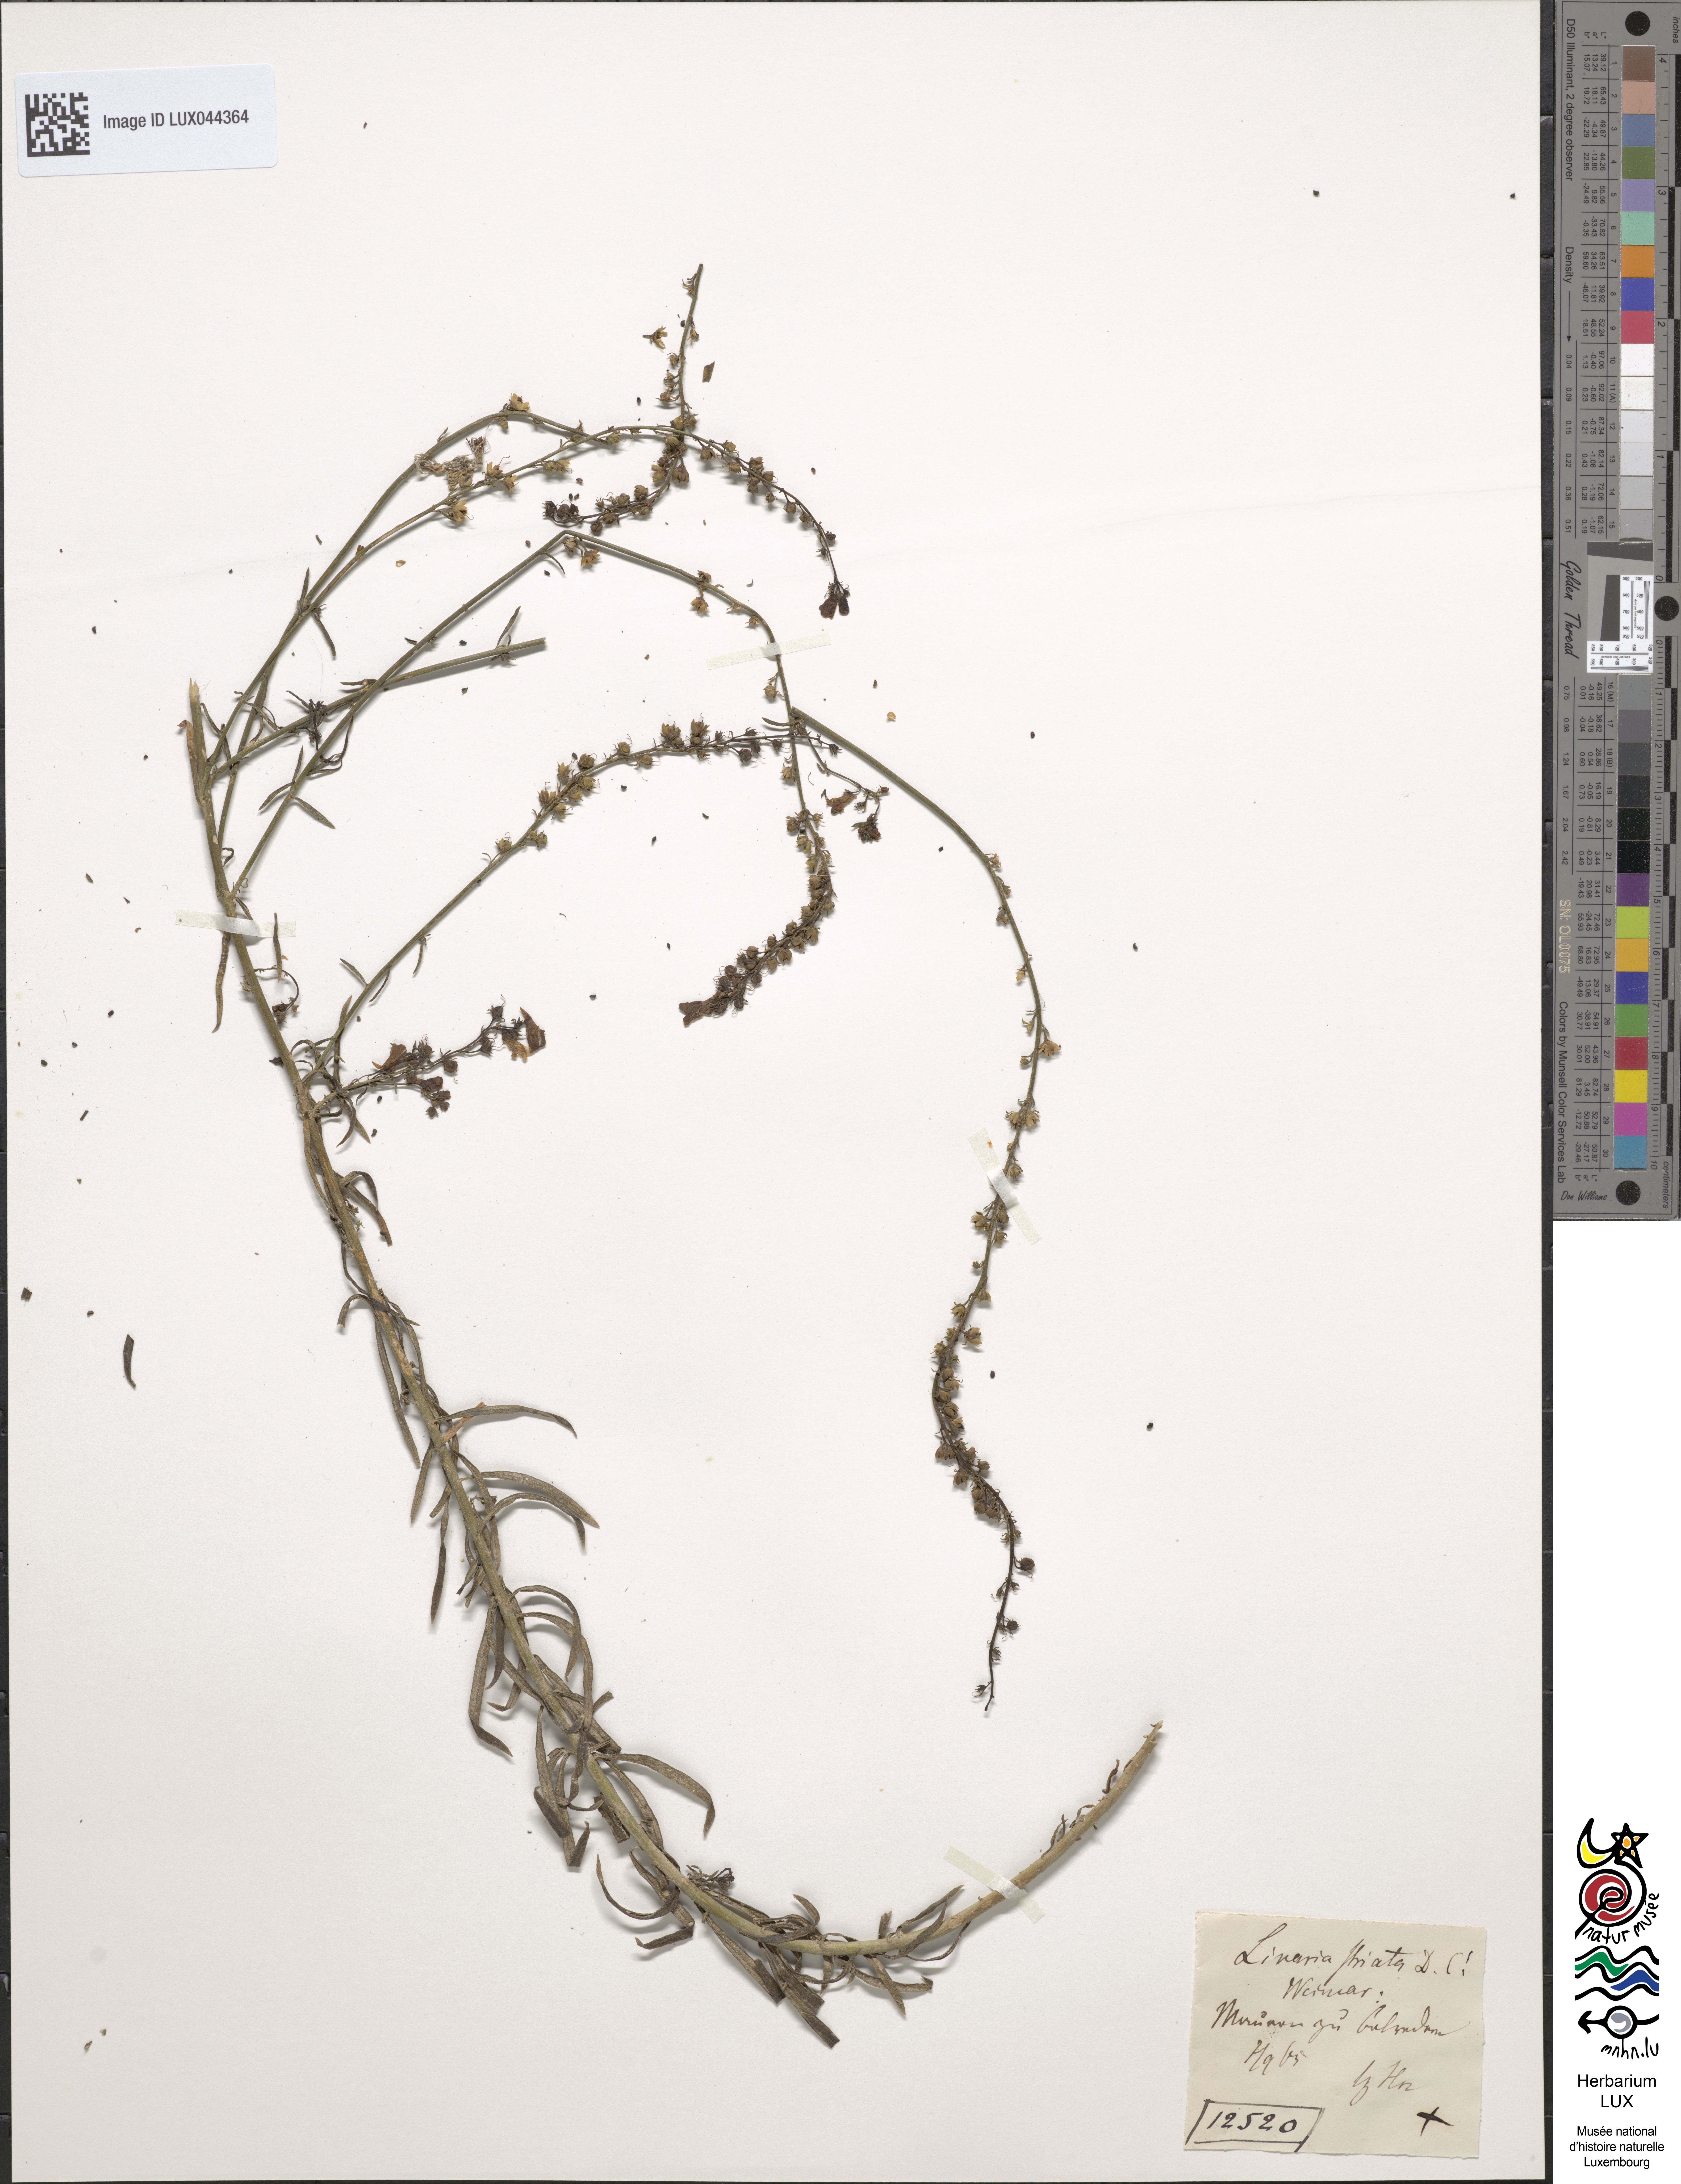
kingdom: Plantae
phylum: Tracheophyta
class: Magnoliopsida
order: Lamiales
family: Plantaginaceae
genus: Linaria
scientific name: Linaria repens
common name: Pale toadflax
